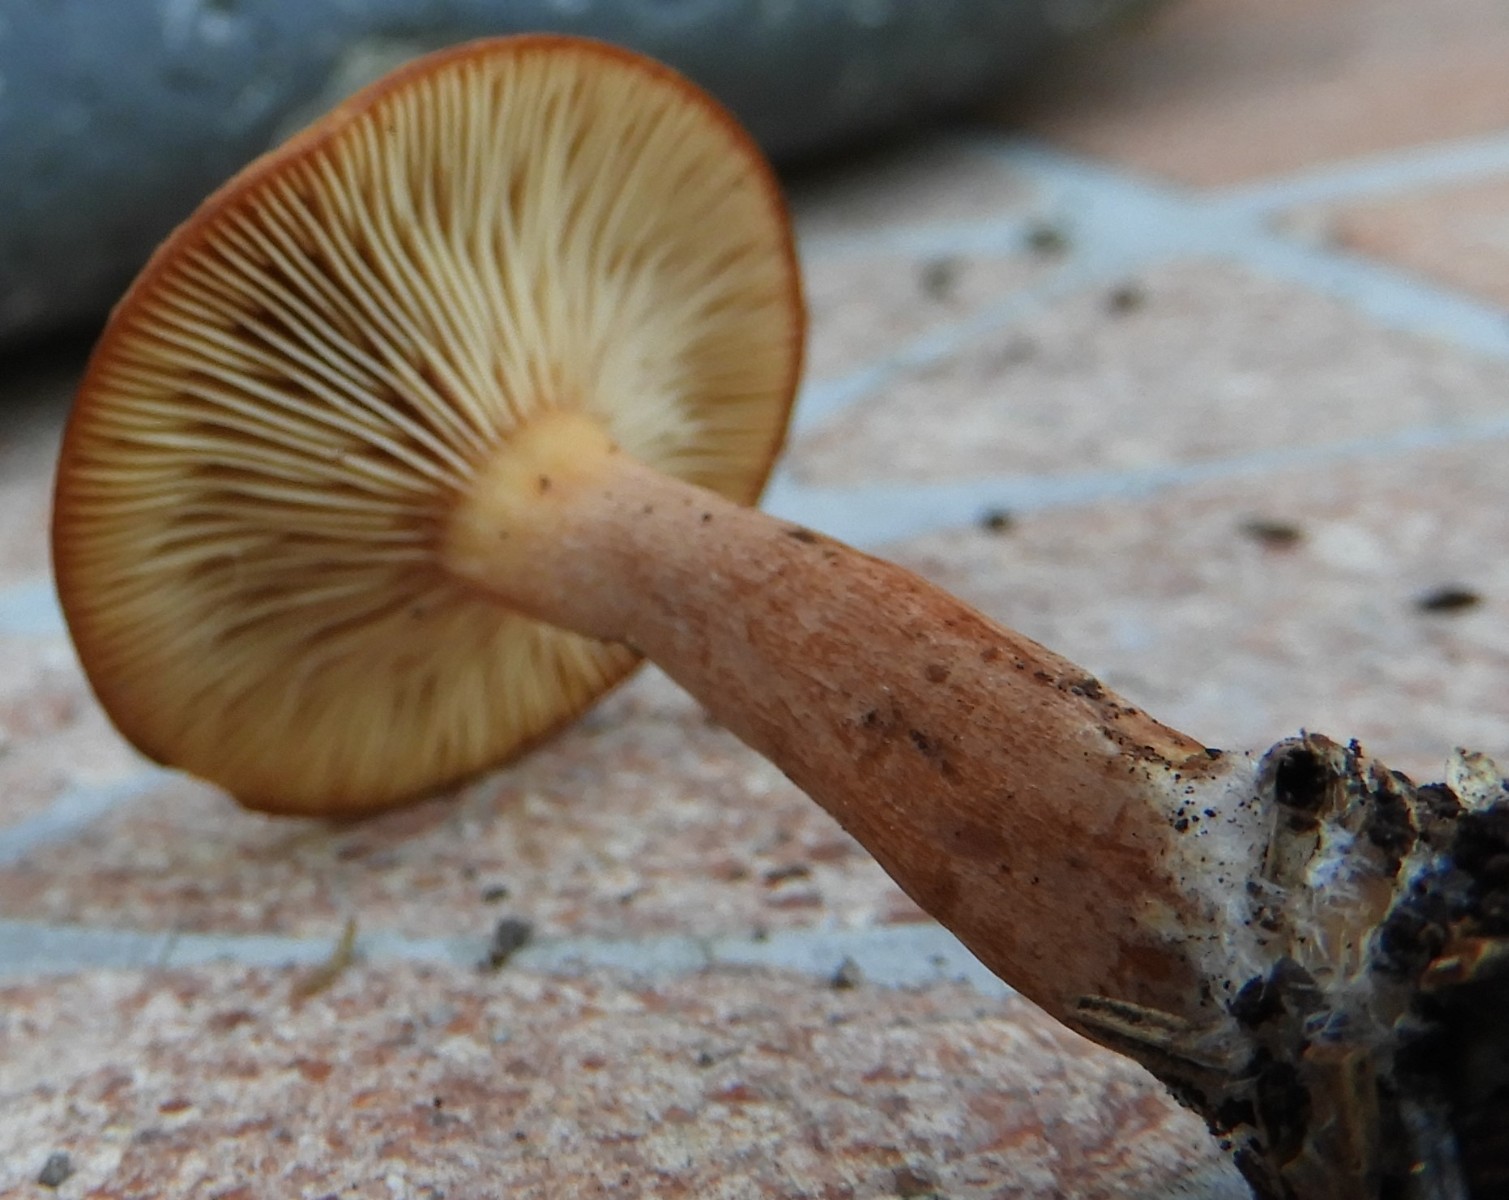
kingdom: Fungi
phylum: Basidiomycota
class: Agaricomycetes
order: Russulales
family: Russulaceae
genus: Lactarius
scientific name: Lactarius
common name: mælkehat
